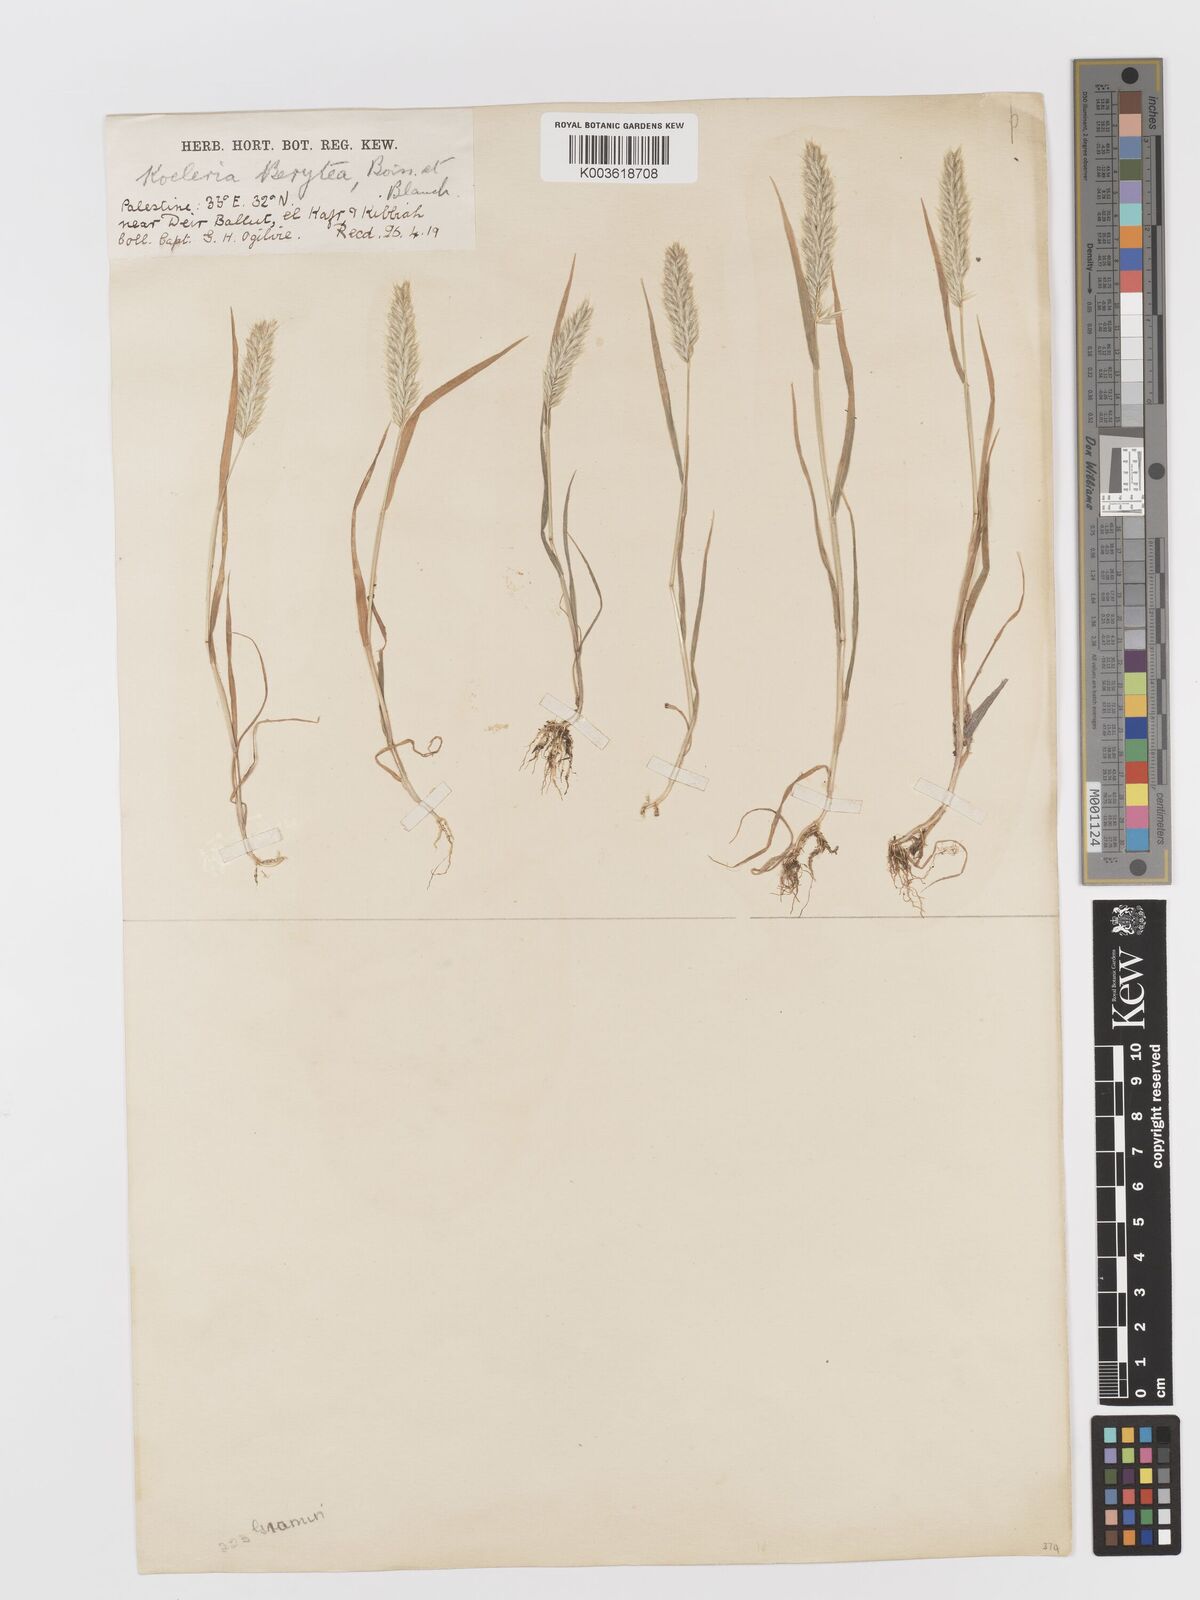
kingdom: Plantae
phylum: Tracheophyta
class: Liliopsida
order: Poales
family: Poaceae
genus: Rostraria
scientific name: Rostraria smyrnaea
